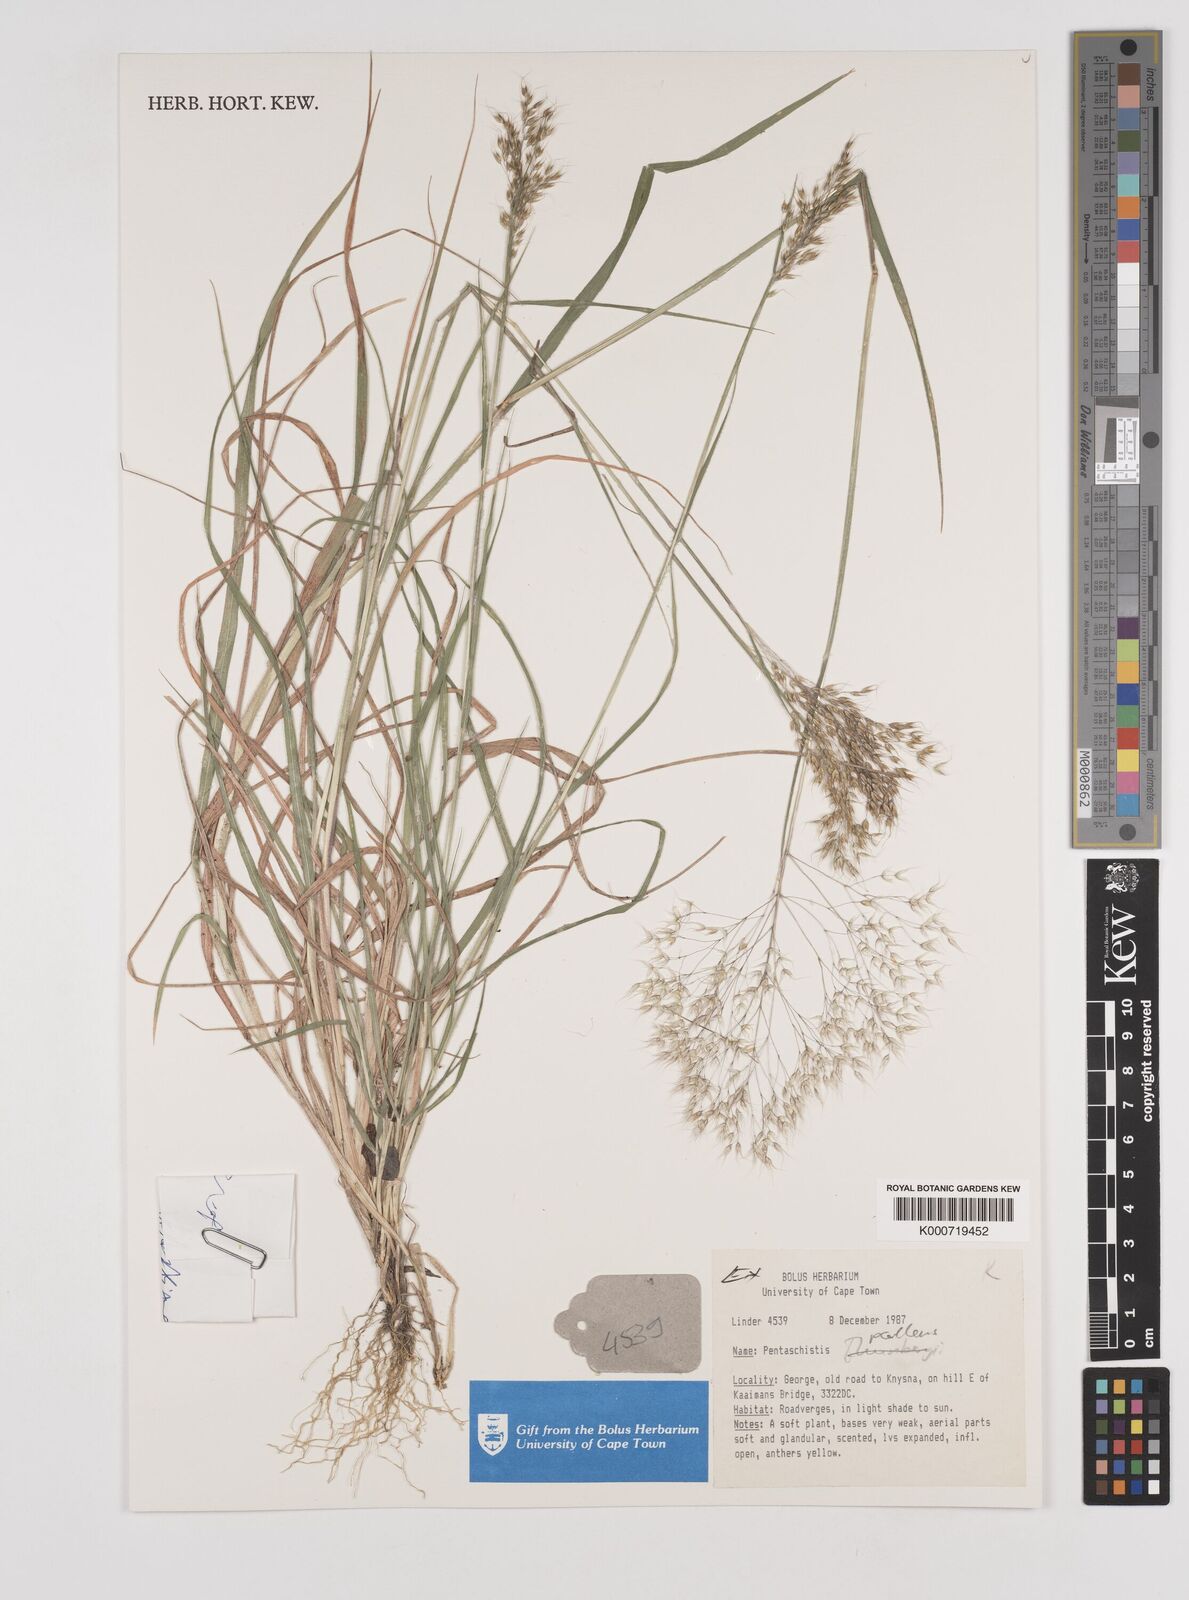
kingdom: Plantae
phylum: Tracheophyta
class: Liliopsida
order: Poales
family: Poaceae
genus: Pentameris
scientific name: Pentameris pallescens
